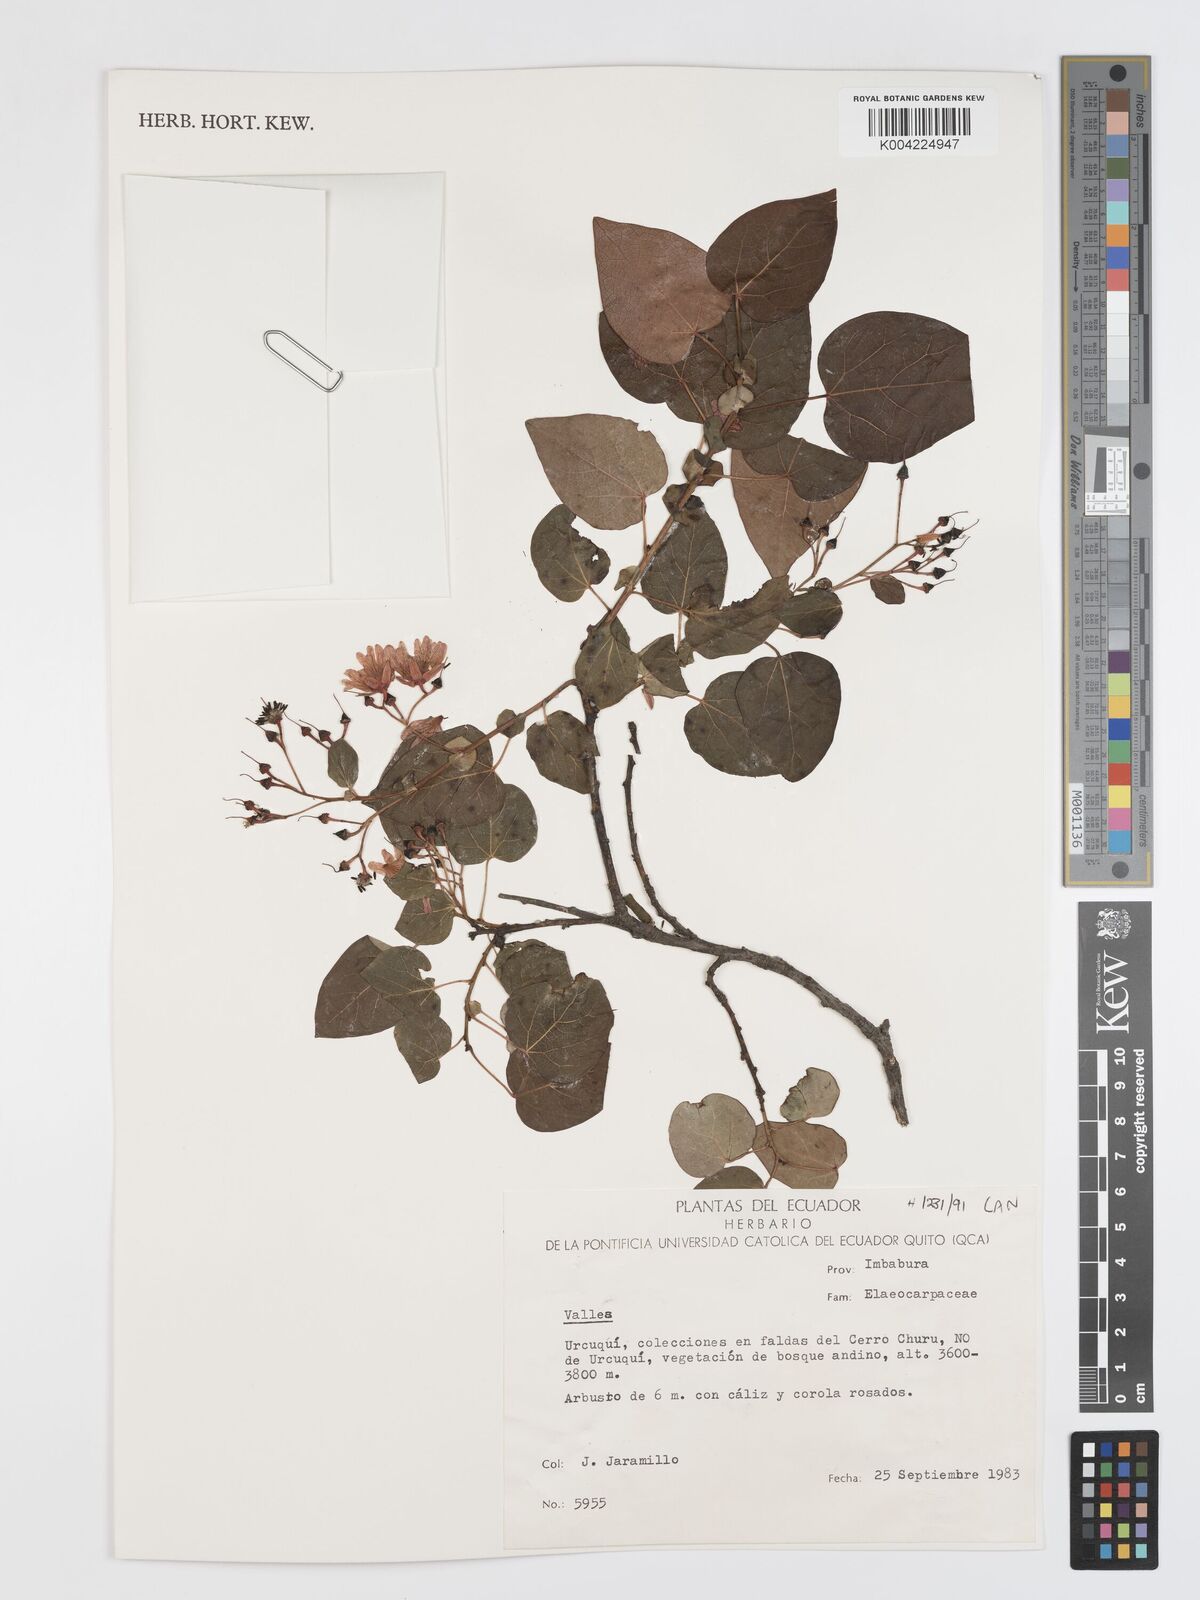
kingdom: Plantae
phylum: Tracheophyta
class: Magnoliopsida
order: Oxalidales
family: Elaeocarpaceae
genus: Vallea
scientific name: Vallea stipularis
